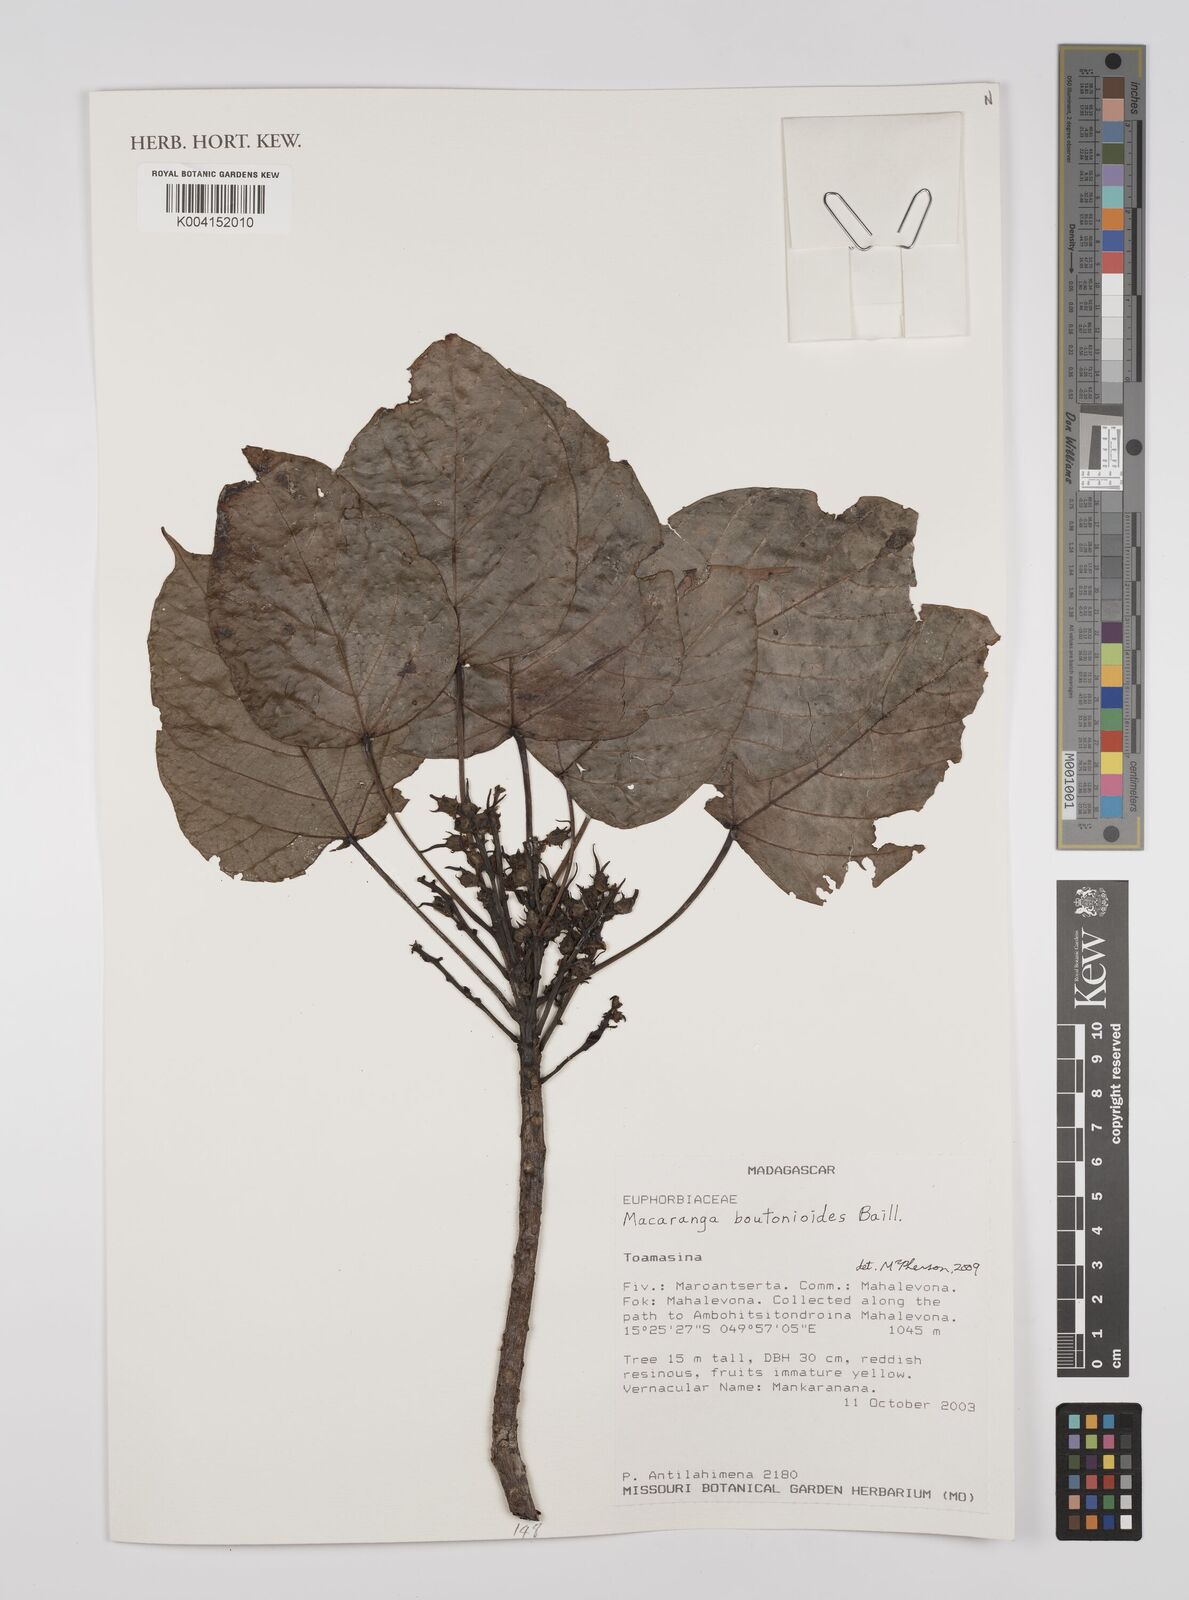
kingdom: Plantae
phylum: Tracheophyta
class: Magnoliopsida
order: Malpighiales
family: Euphorbiaceae
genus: Macaranga
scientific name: Macaranga
